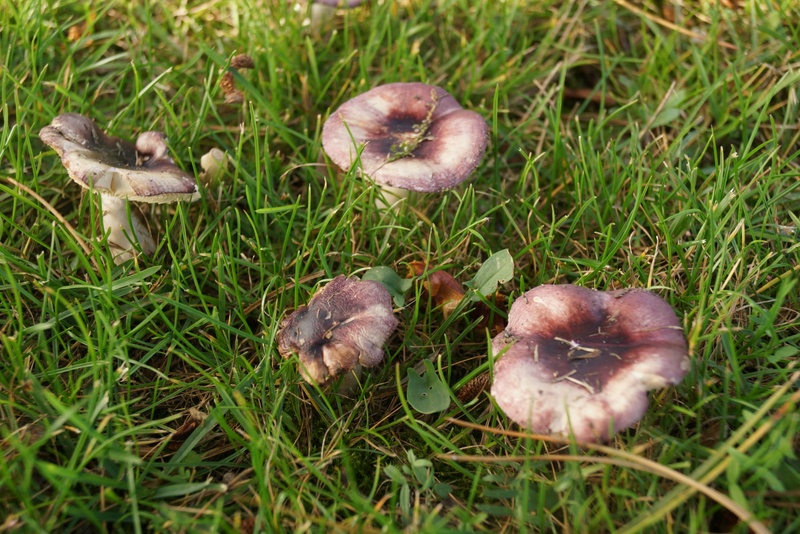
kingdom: Fungi
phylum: Basidiomycota
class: Agaricomycetes
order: Russulales
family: Russulaceae
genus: Russula
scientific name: Russula cessans
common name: fyrre-skørhat
